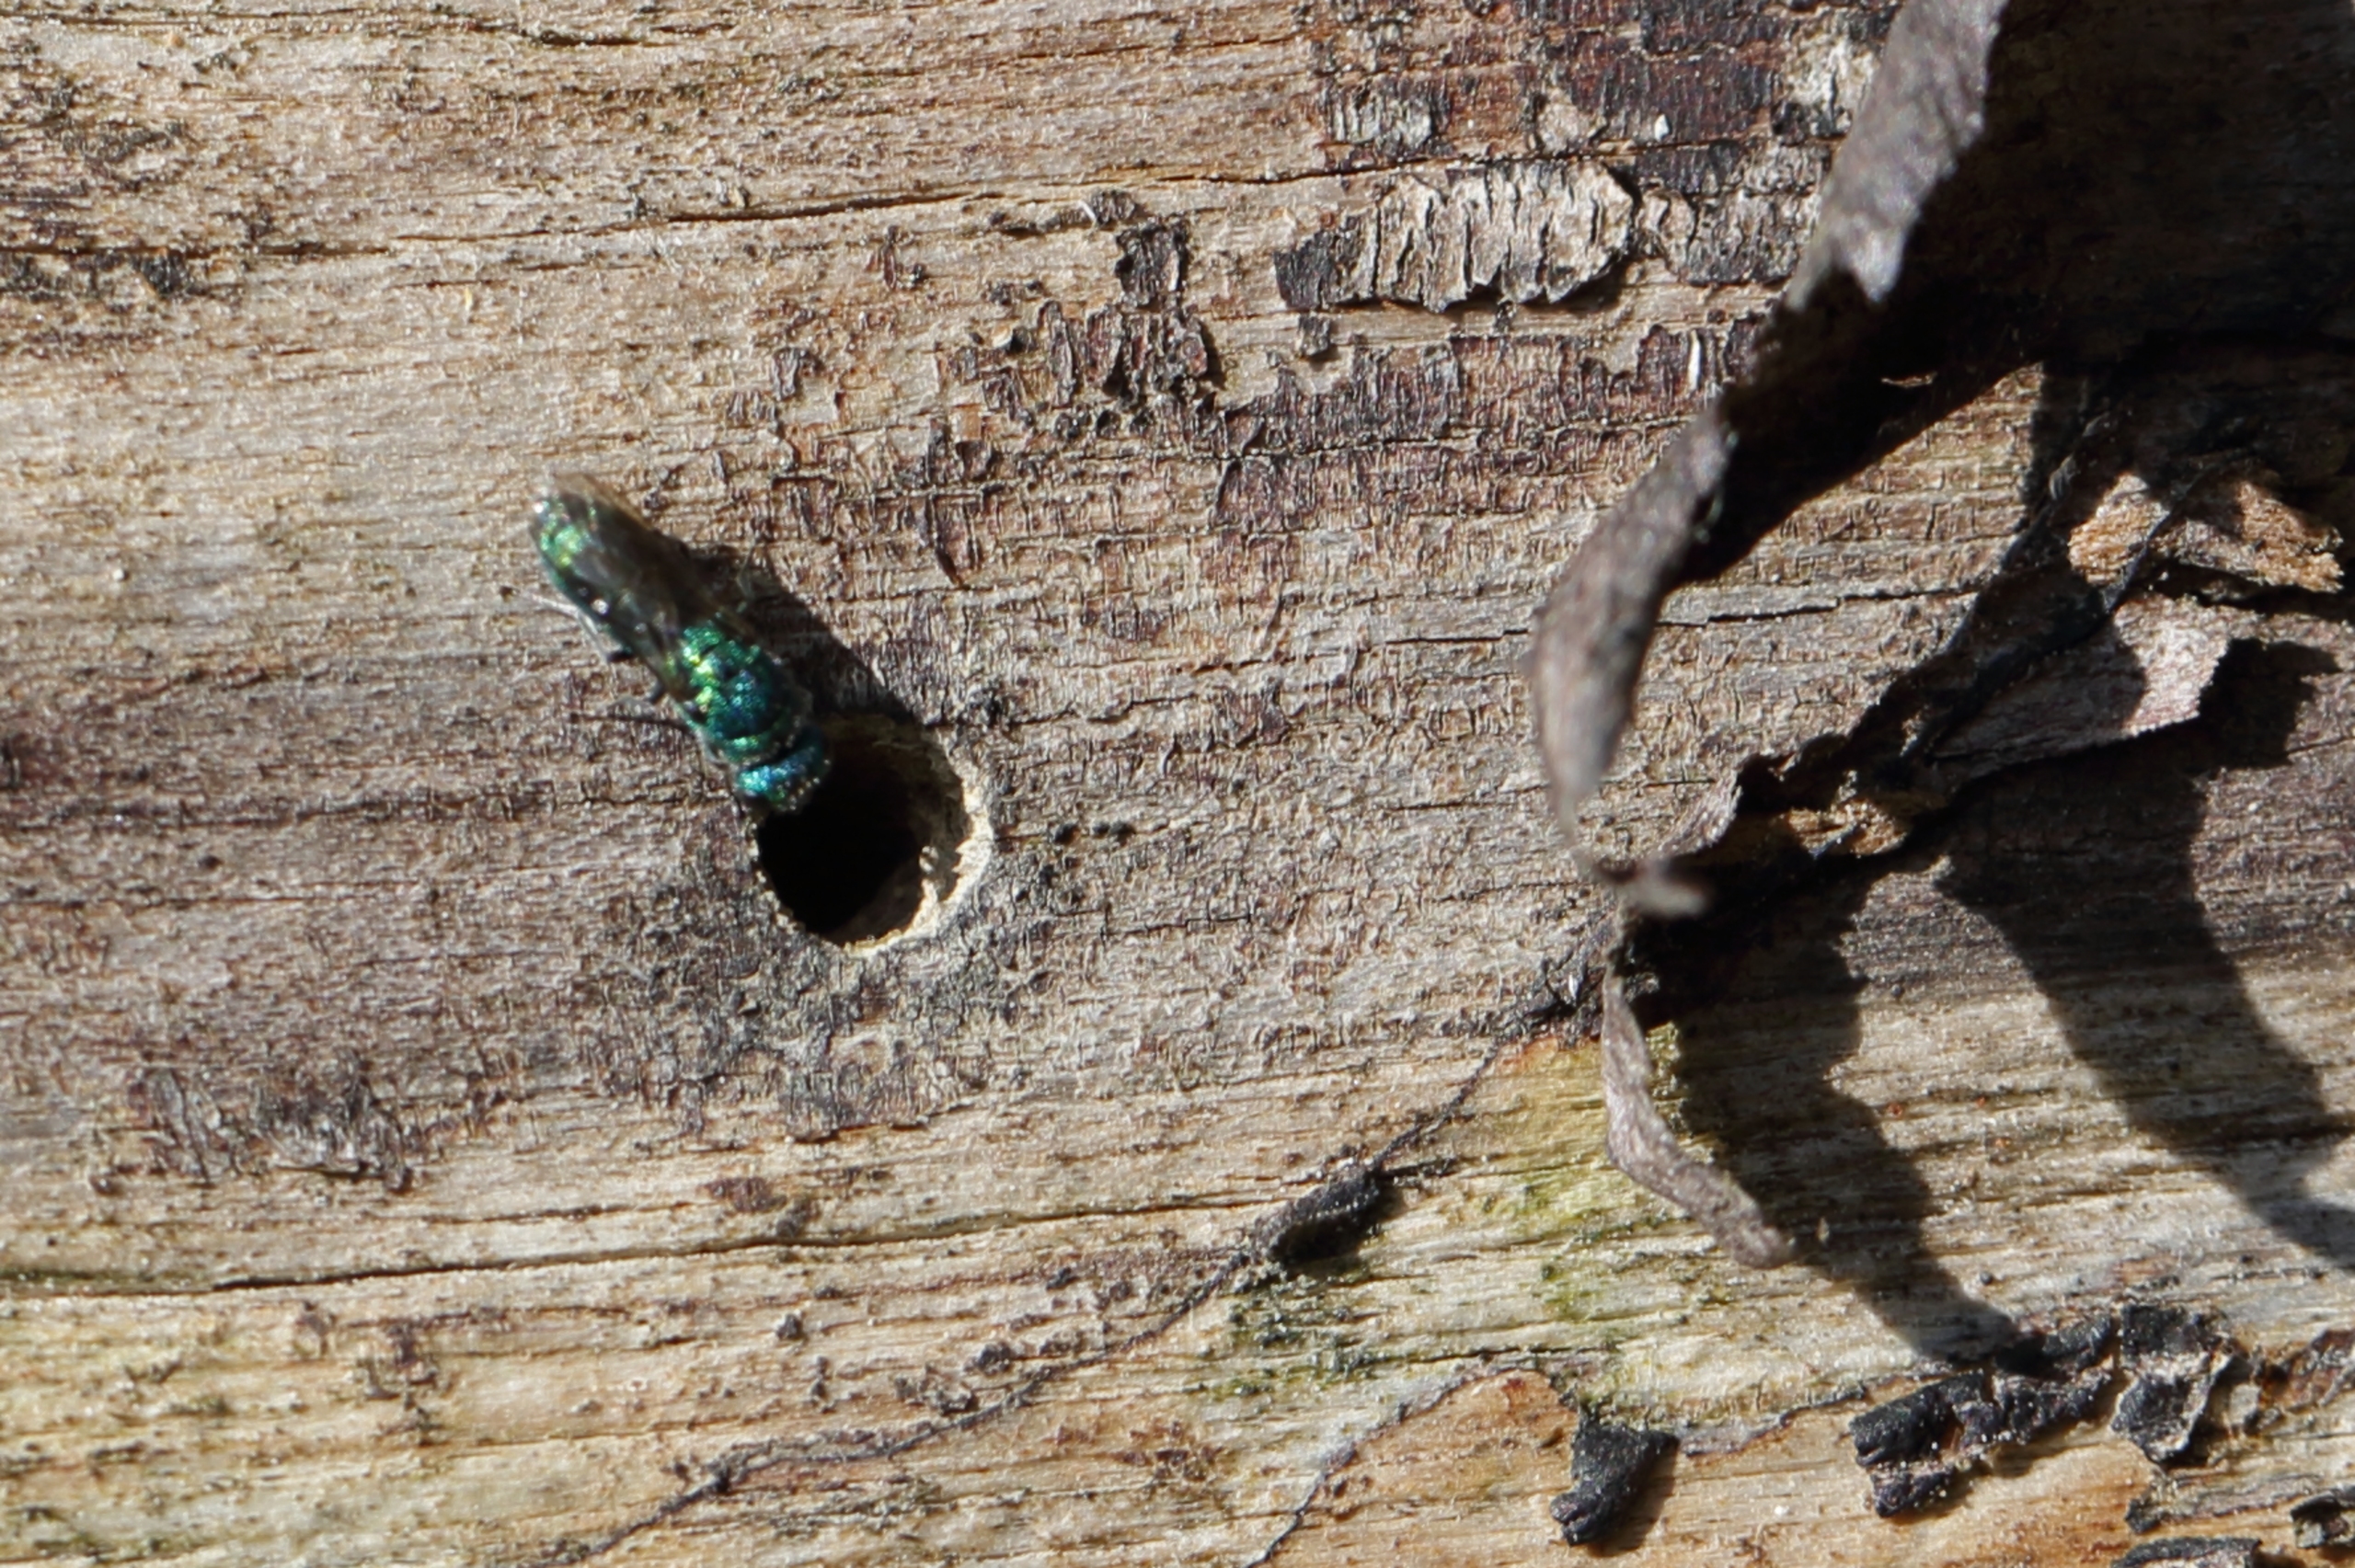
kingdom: Animalia
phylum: Arthropoda
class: Insecta
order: Hymenoptera
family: Pompilidae
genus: Pepsis
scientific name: Pepsis cyanea
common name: Vedguldhveps
